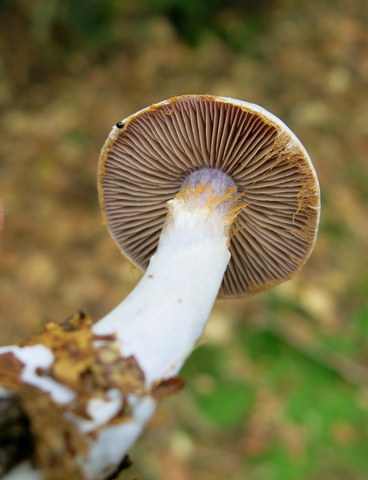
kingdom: Fungi
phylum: Basidiomycota
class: Agaricomycetes
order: Agaricales
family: Cortinariaceae
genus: Cortinarius
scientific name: Cortinarius alboviolaceus
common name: lysviolet slørhat
